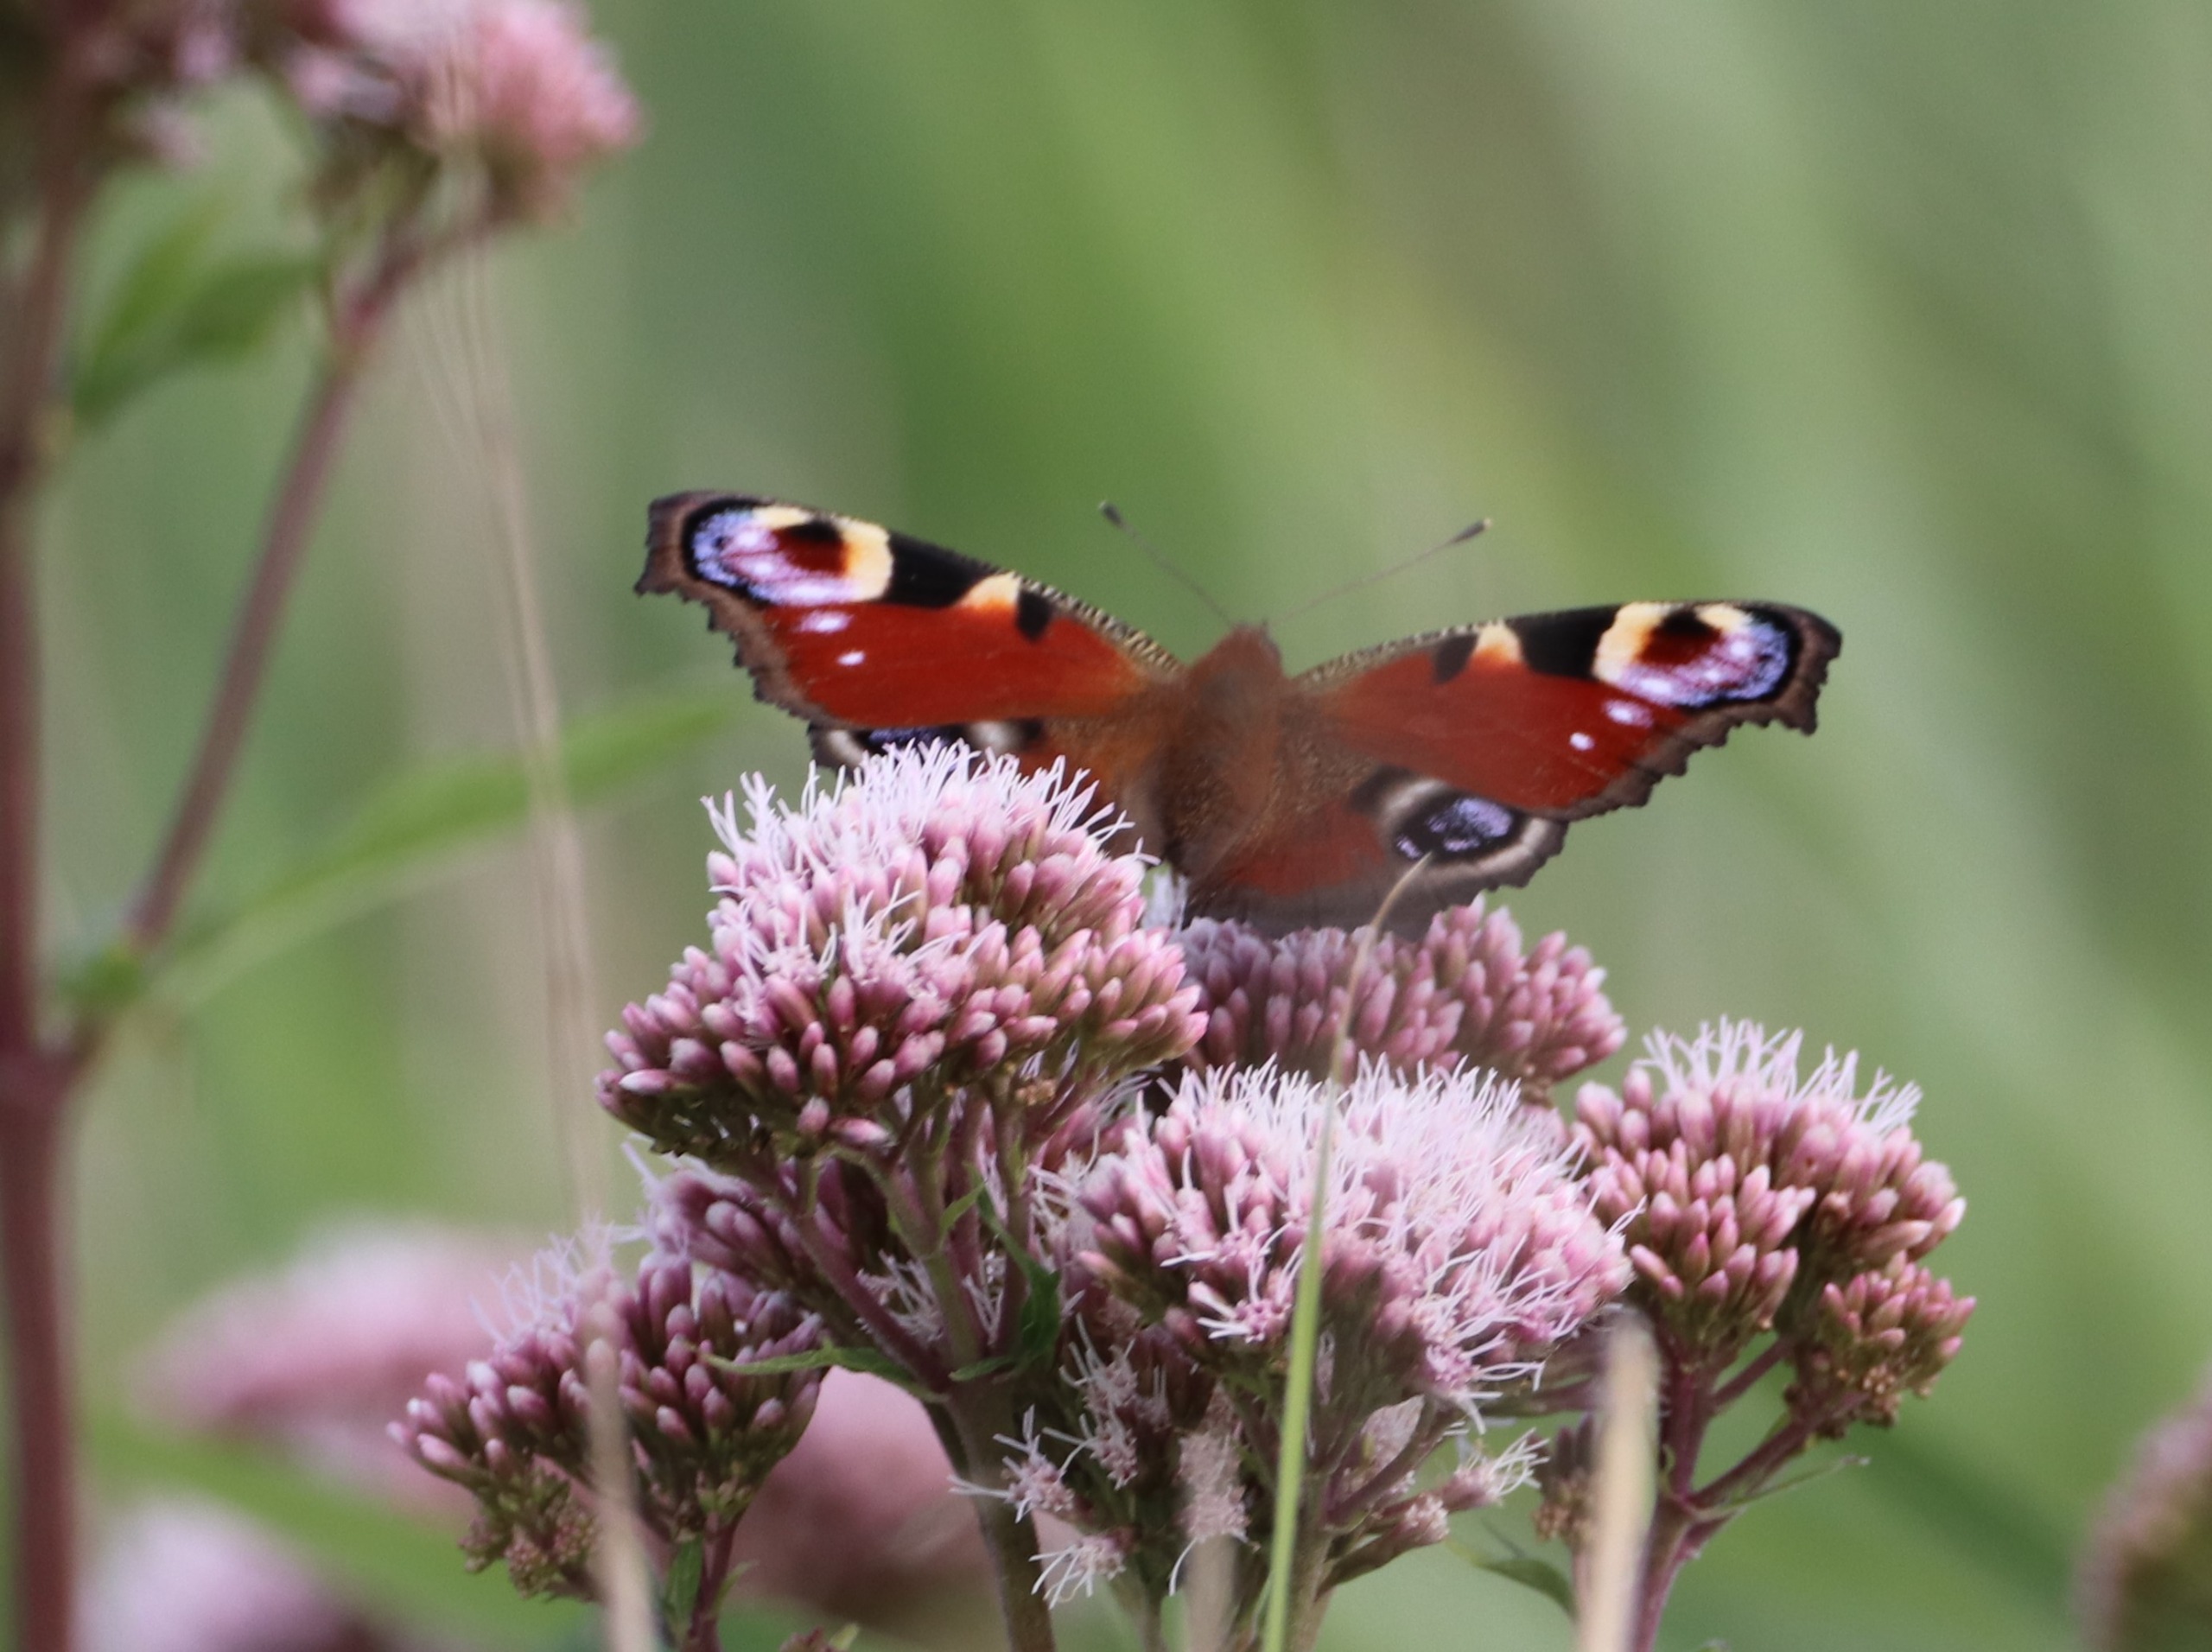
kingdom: Animalia
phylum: Arthropoda
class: Insecta
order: Lepidoptera
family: Nymphalidae
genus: Aglais
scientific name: Aglais io
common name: Dagpåfugleøje
